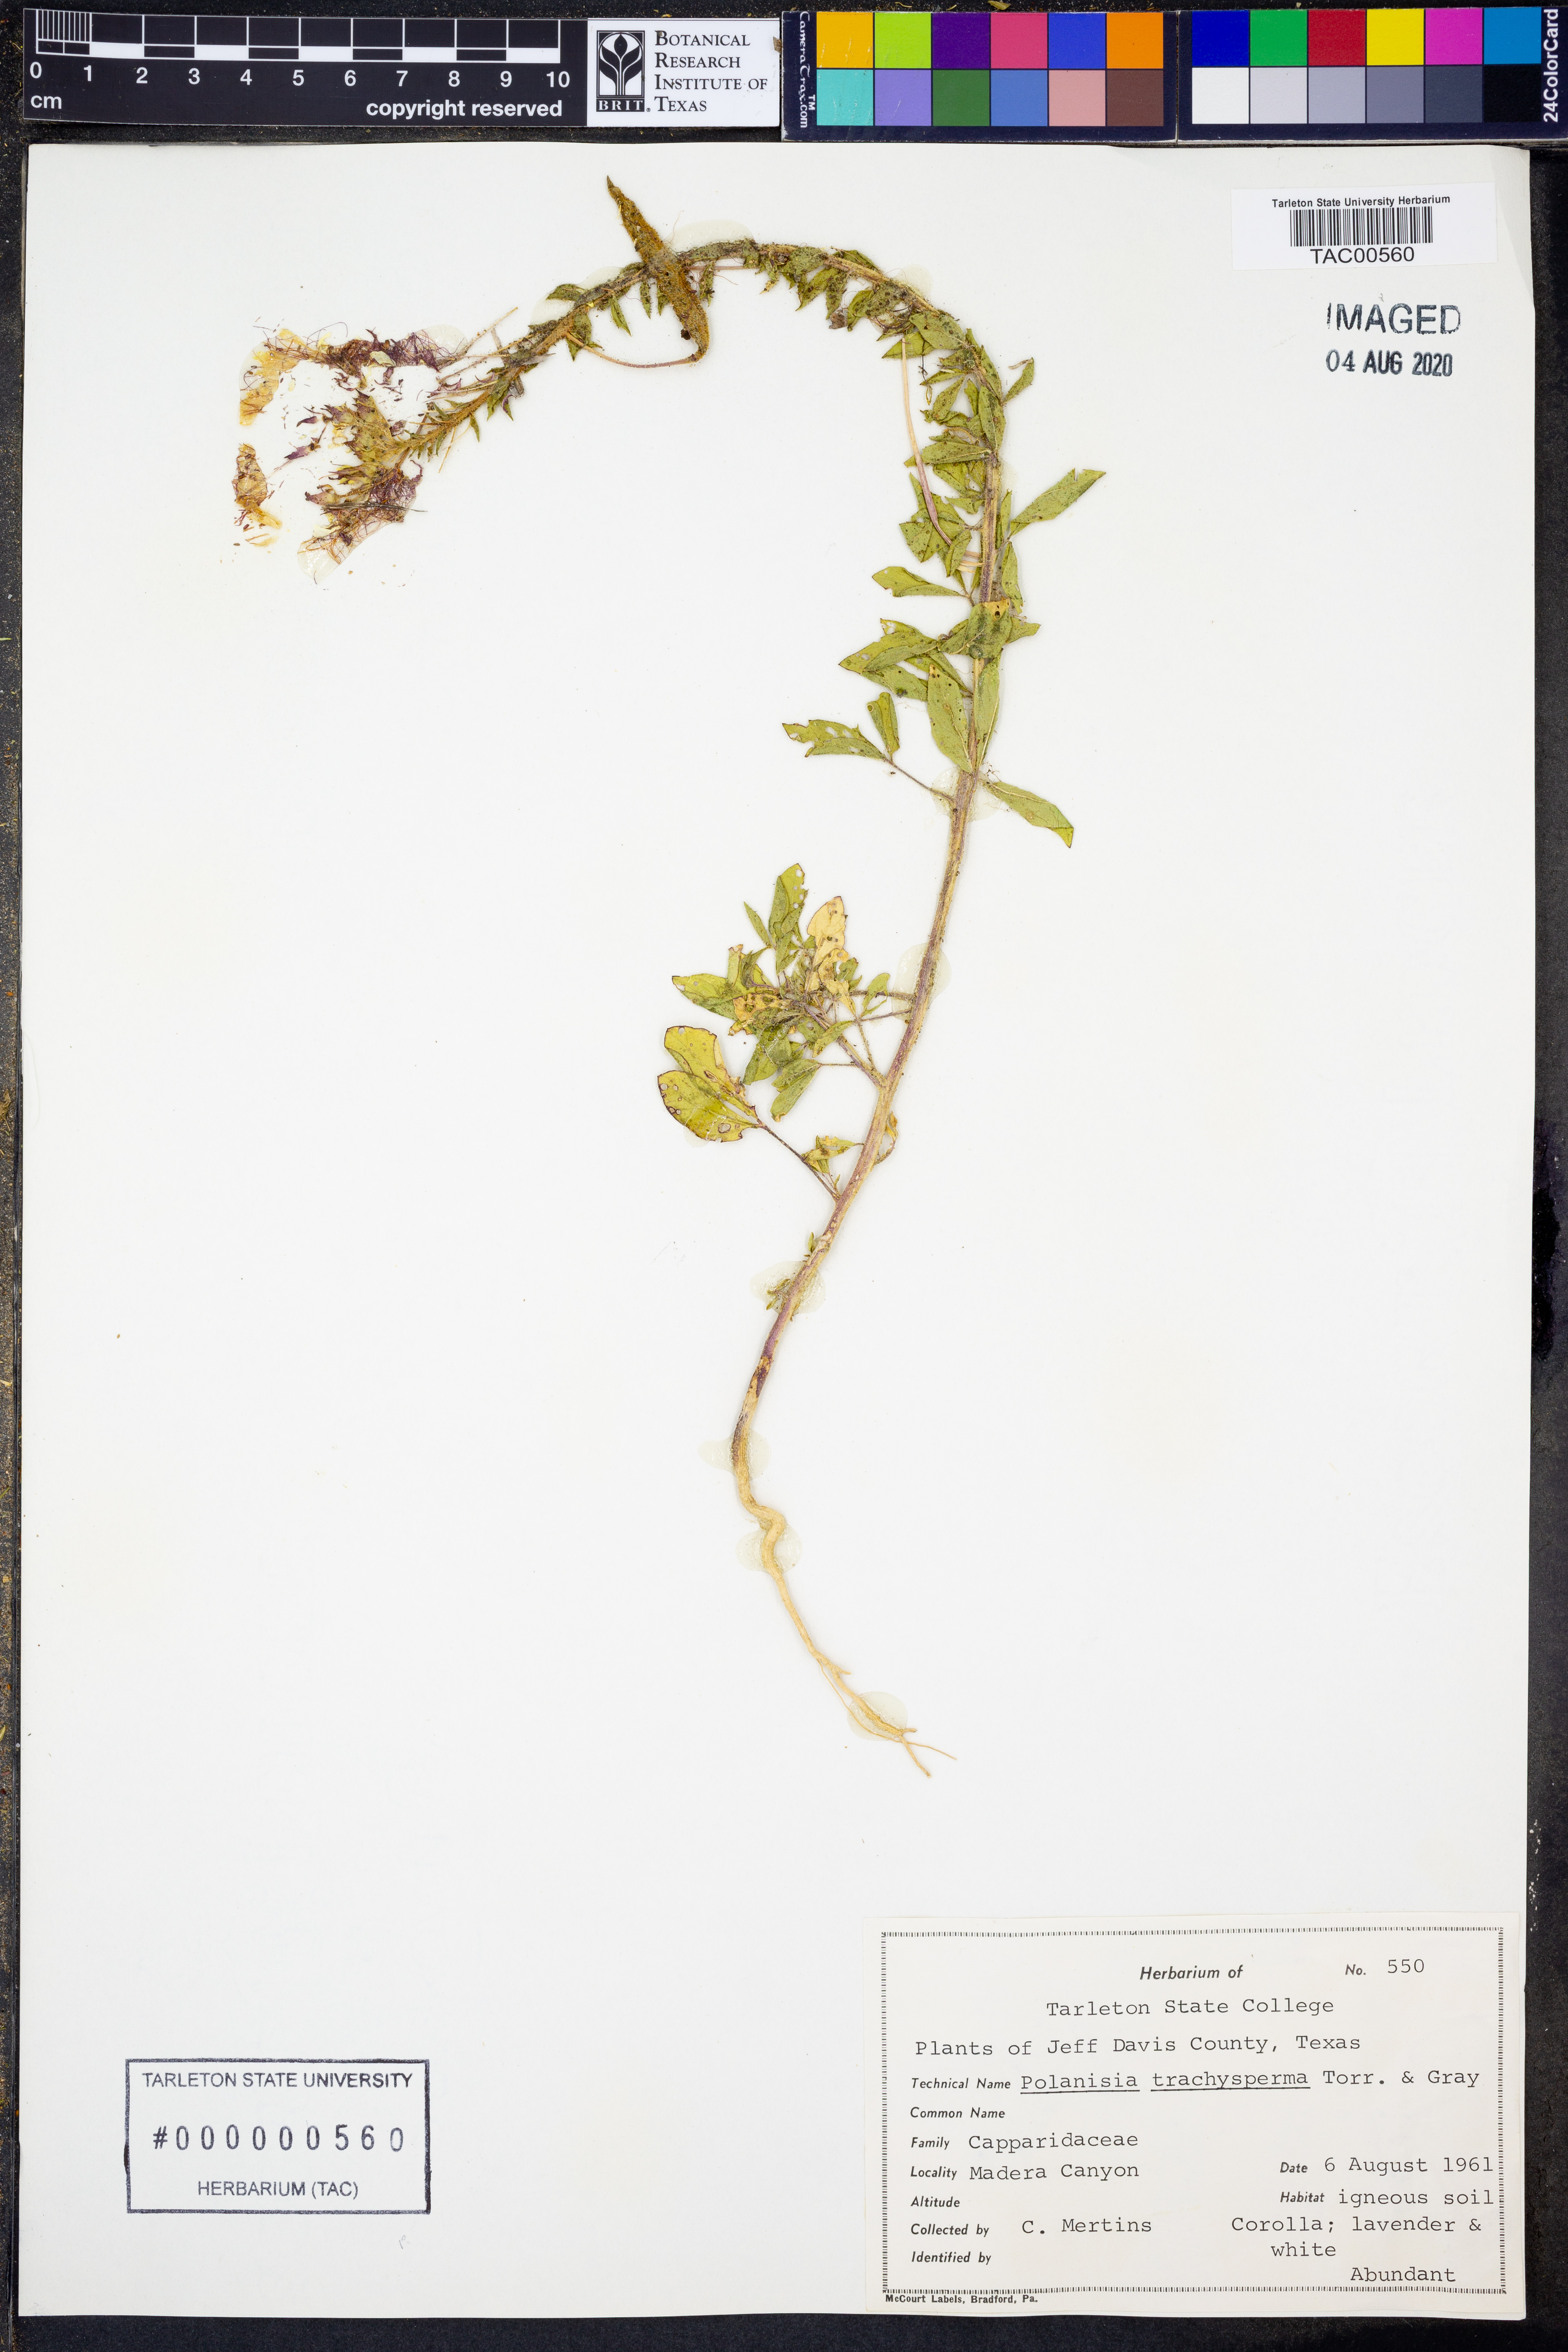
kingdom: Plantae
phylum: Tracheophyta
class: Magnoliopsida
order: Brassicales
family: Cleomaceae
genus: Polanisia
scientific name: Polanisia trachysperma
